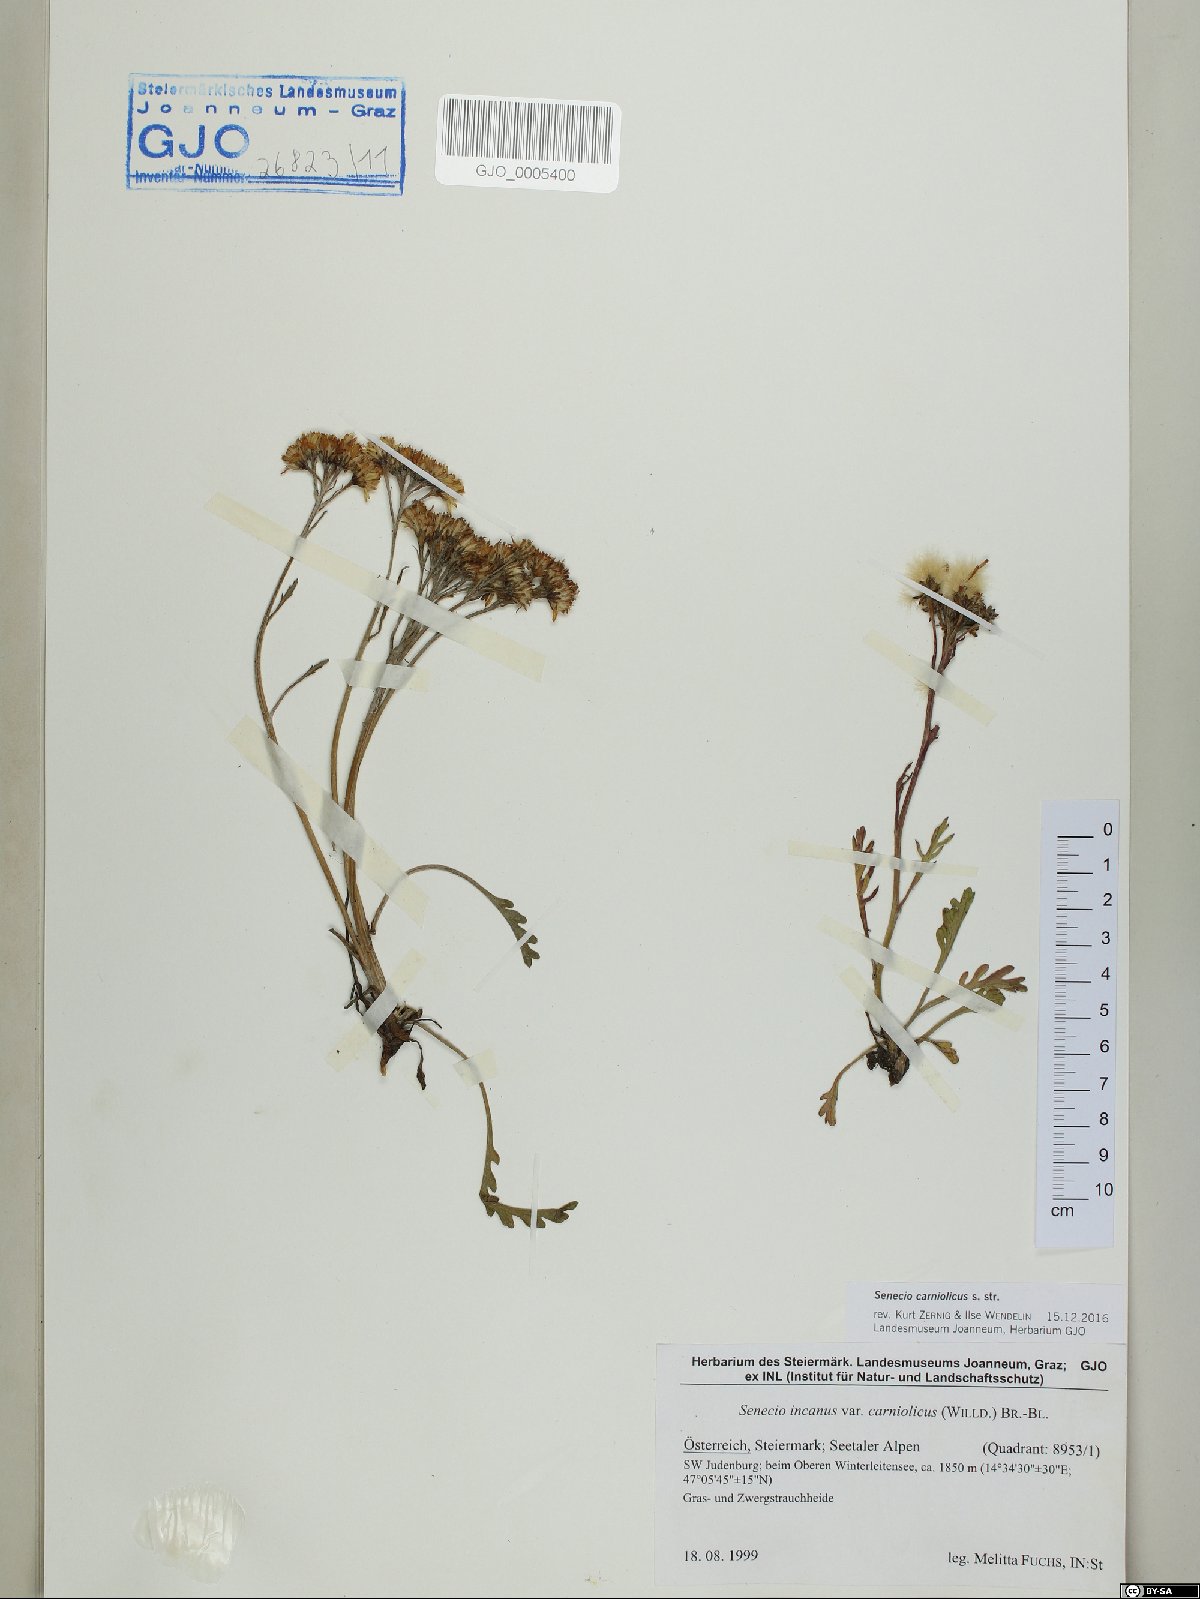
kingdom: Plantae
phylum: Tracheophyta
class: Magnoliopsida
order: Asterales
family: Asteraceae
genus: Jacobaea
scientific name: Jacobaea carniolica
